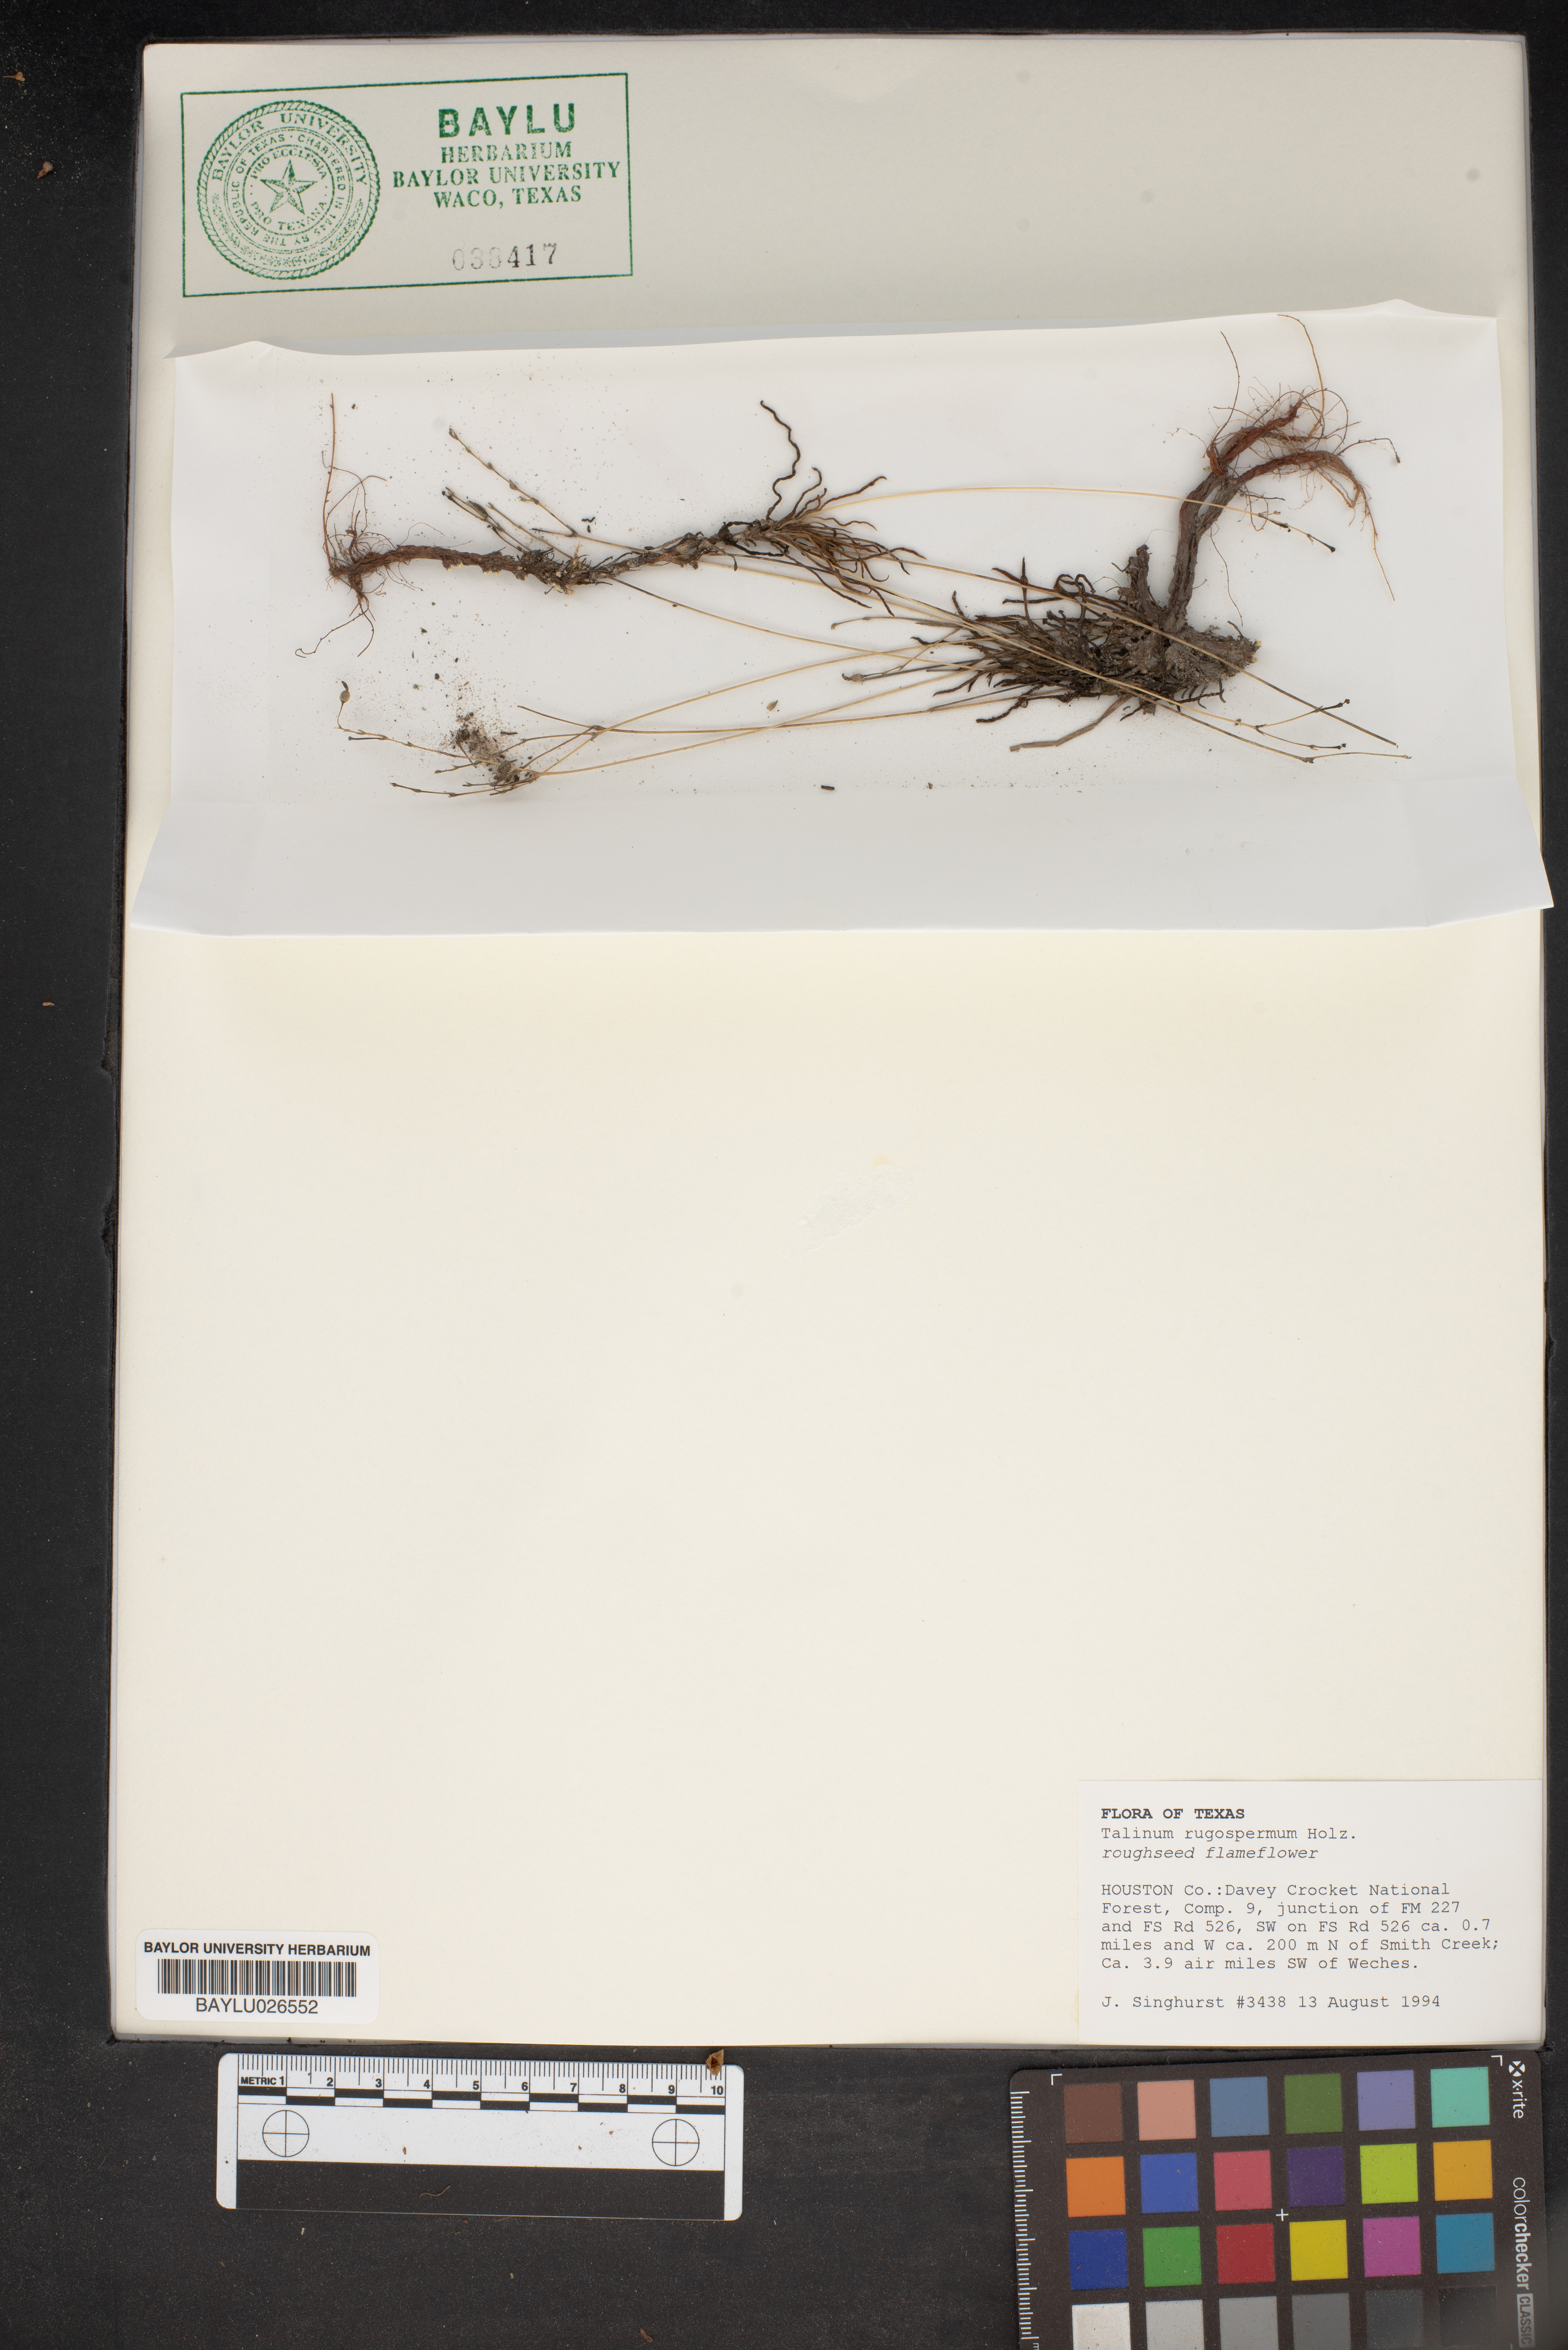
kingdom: Plantae
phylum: Tracheophyta
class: Magnoliopsida
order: Caryophyllales
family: Montiaceae
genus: Phemeranthus
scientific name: Phemeranthus rugospermus
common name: Prairie fameflower
